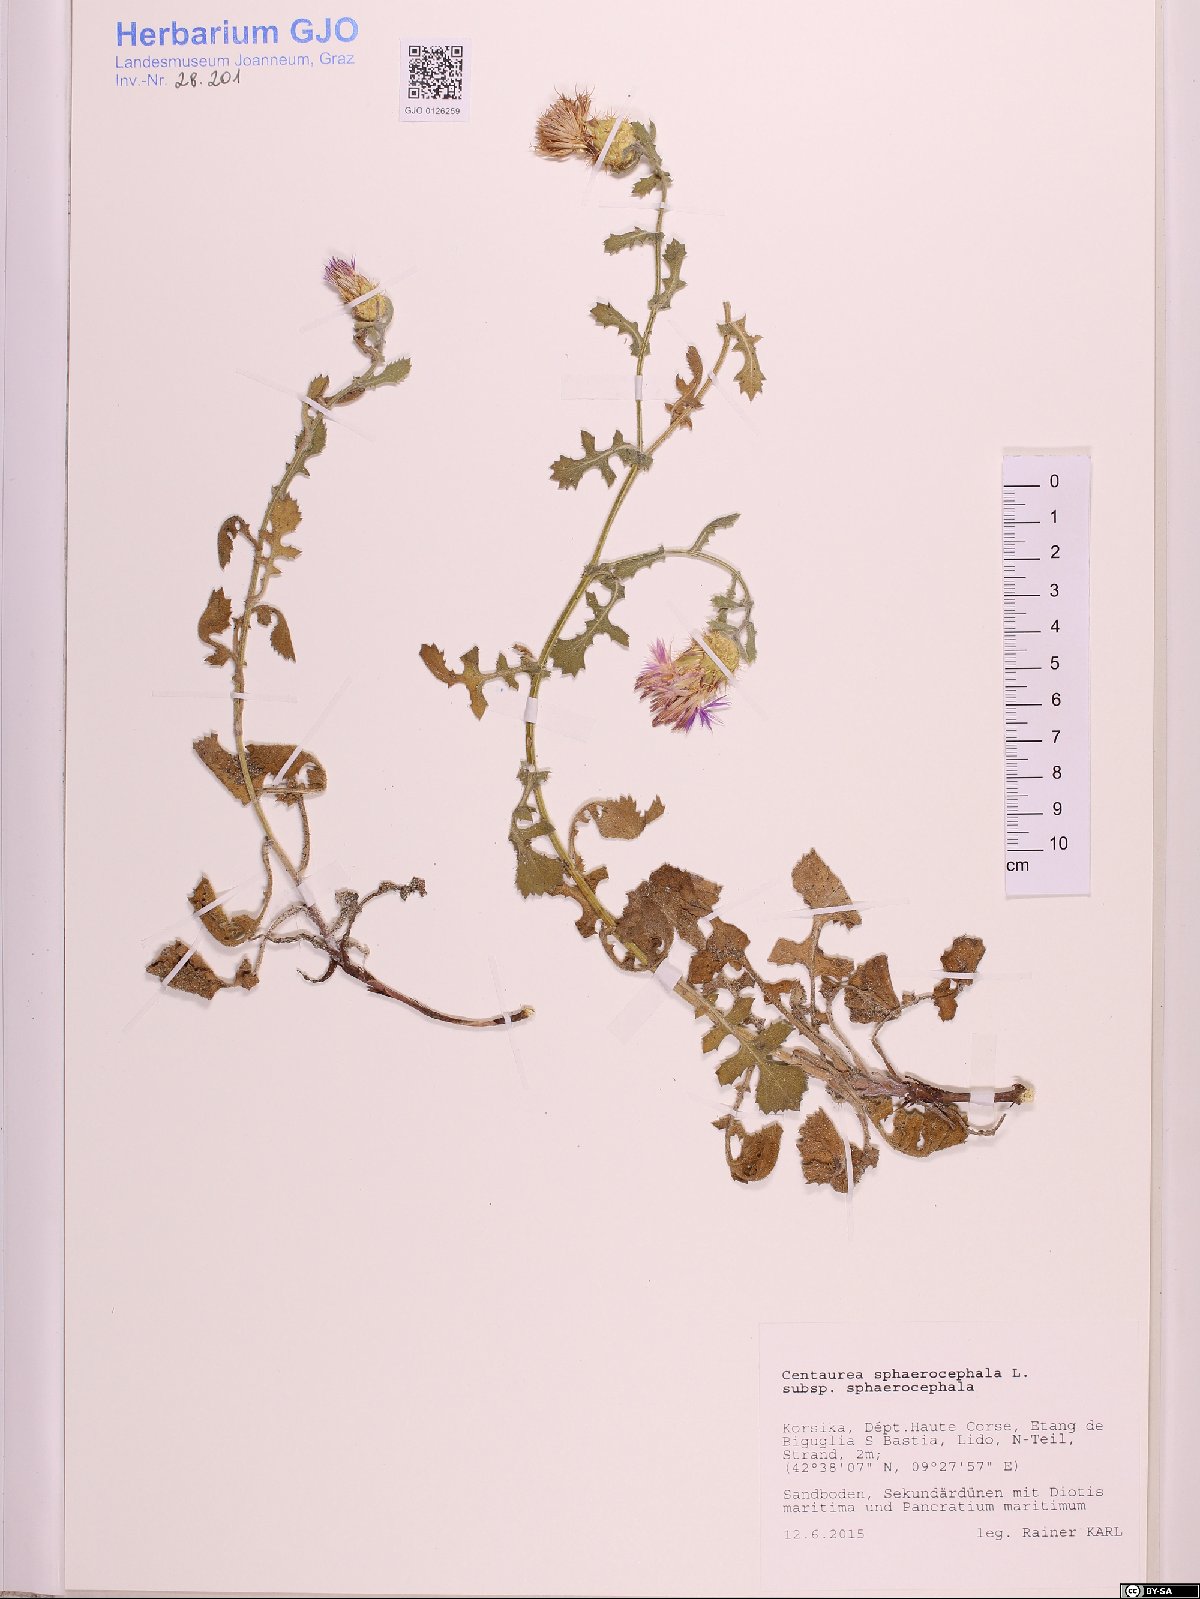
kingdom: Plantae
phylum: Tracheophyta
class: Magnoliopsida
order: Asterales
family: Asteraceae
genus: Centaurea
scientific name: Centaurea sphaerocephala
